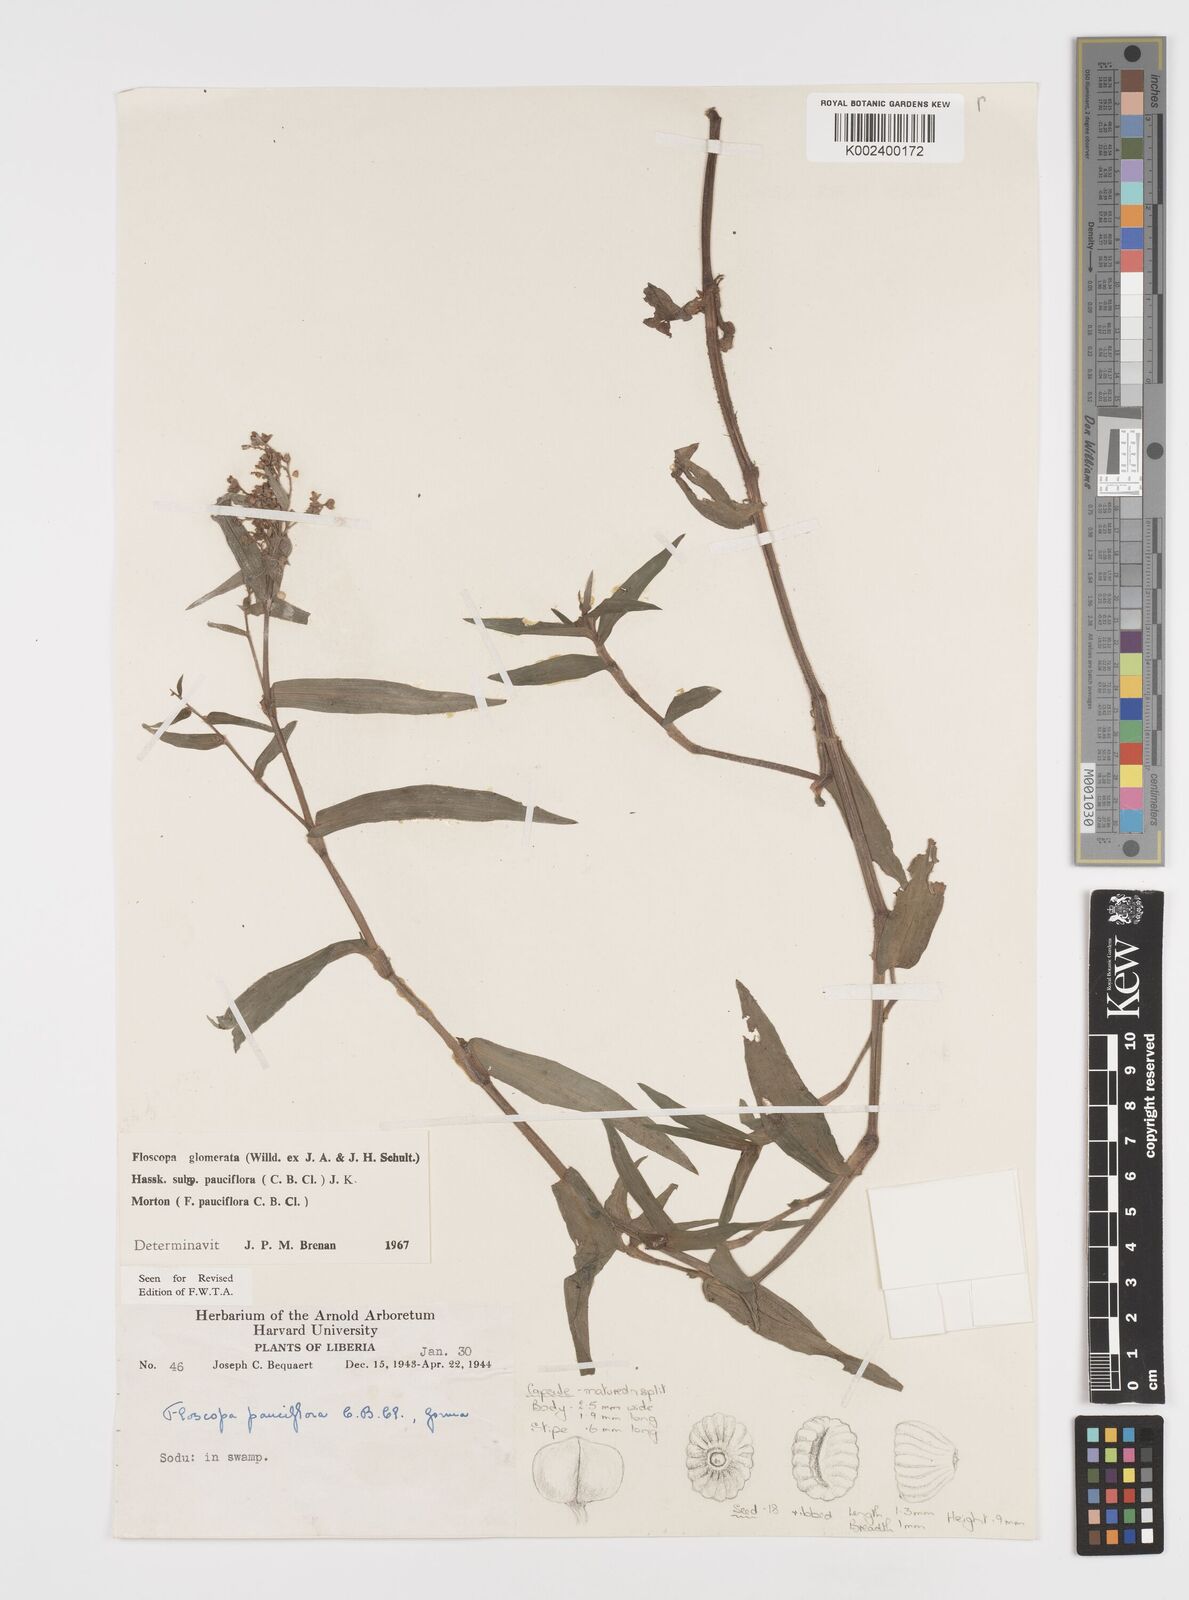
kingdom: Plantae
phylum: Tracheophyta
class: Liliopsida
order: Commelinales
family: Commelinaceae
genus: Floscopa
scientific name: Floscopa glomerata
